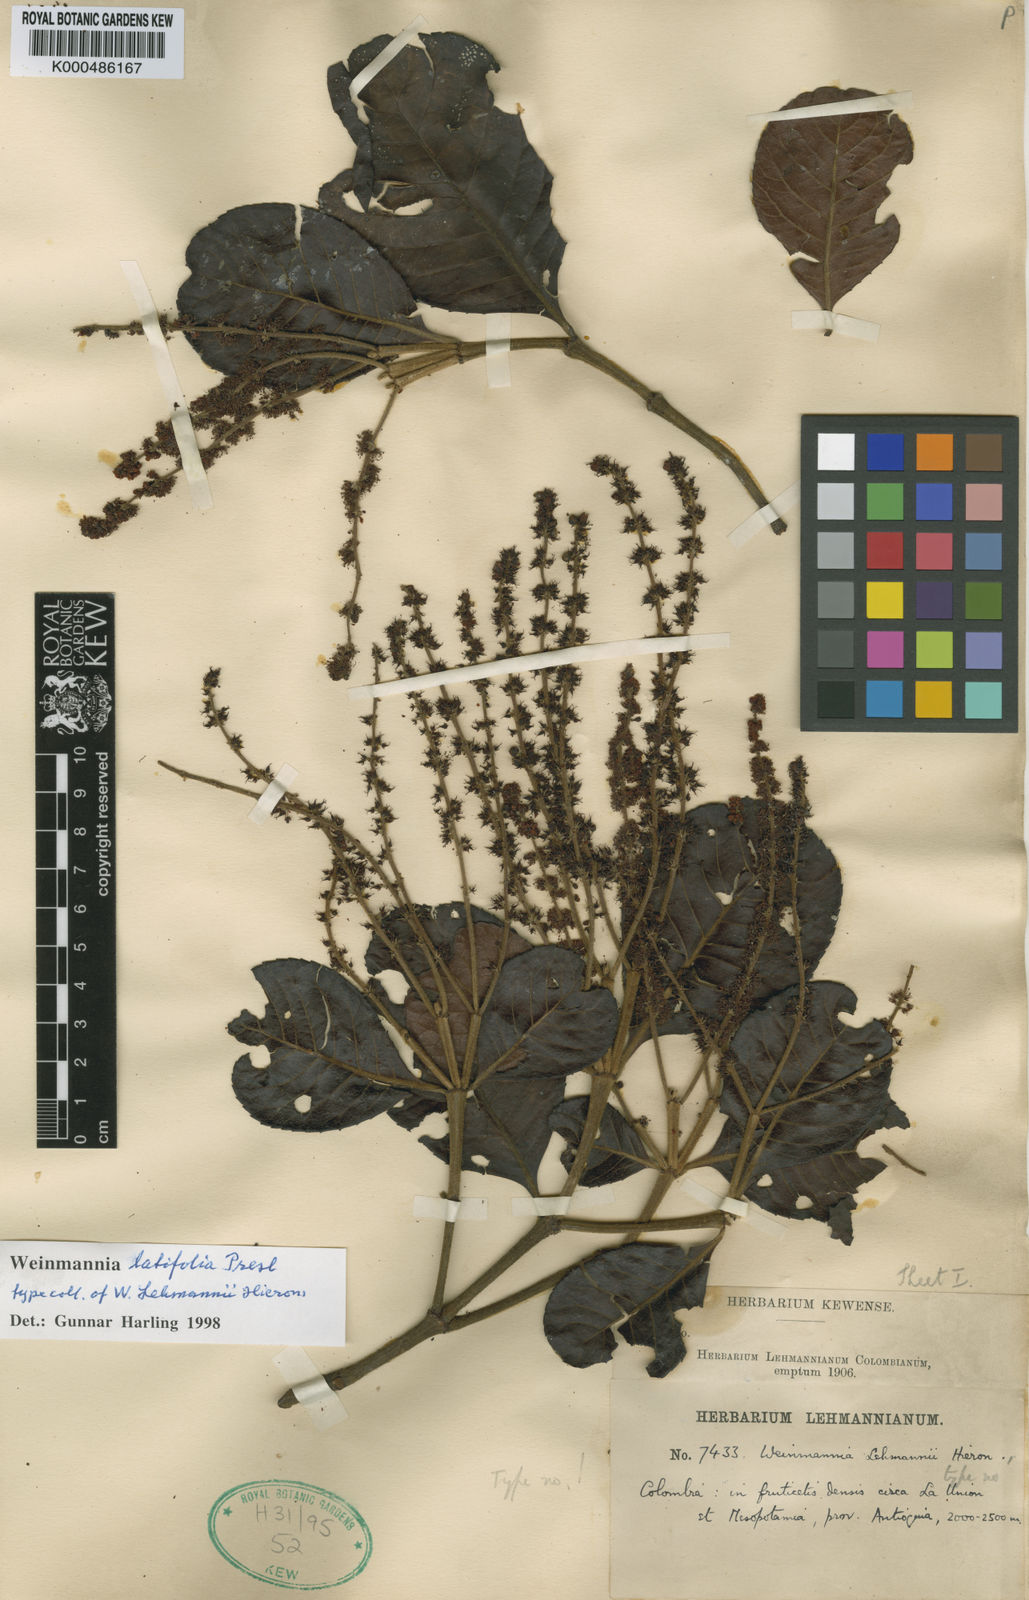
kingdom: Plantae
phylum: Tracheophyta
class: Magnoliopsida
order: Oxalidales
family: Cunoniaceae
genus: Weinmannia
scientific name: Weinmannia latifolia
